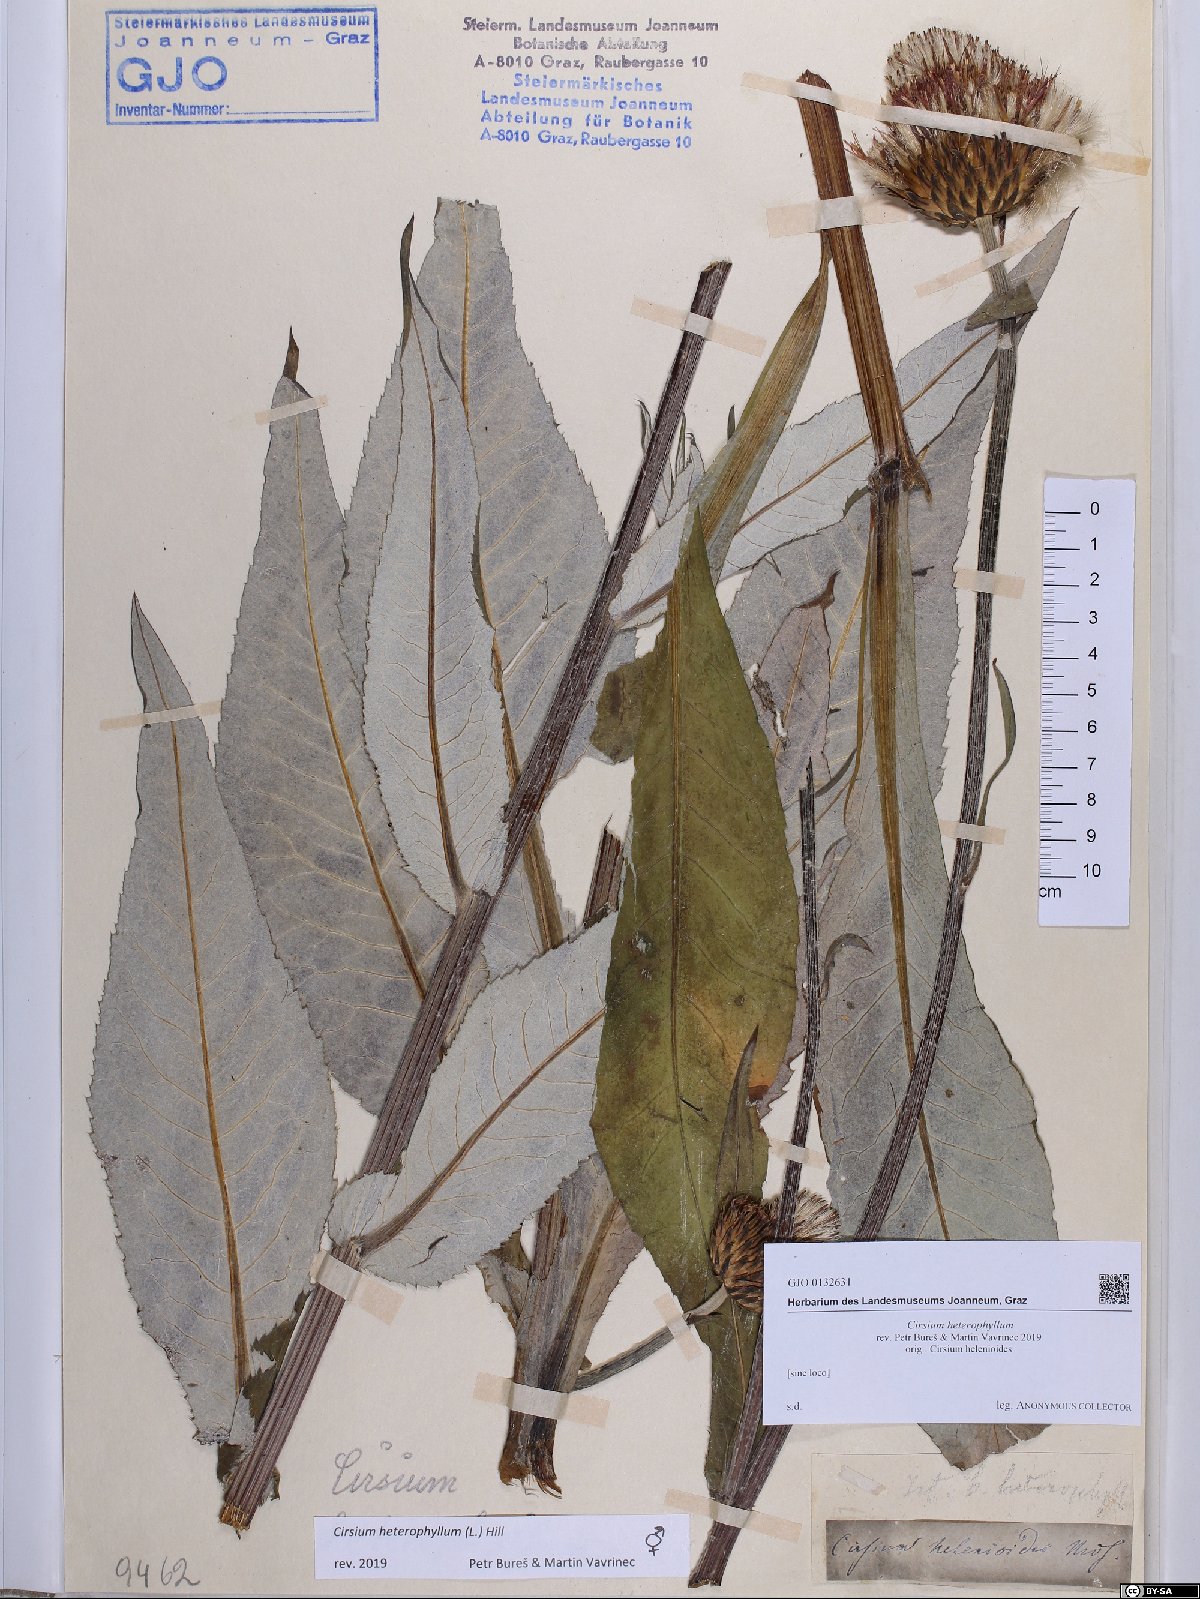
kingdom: Plantae
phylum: Tracheophyta
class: Magnoliopsida
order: Asterales
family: Asteraceae
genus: Cirsium
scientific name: Cirsium heterophyllum
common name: Melancholy thistle
